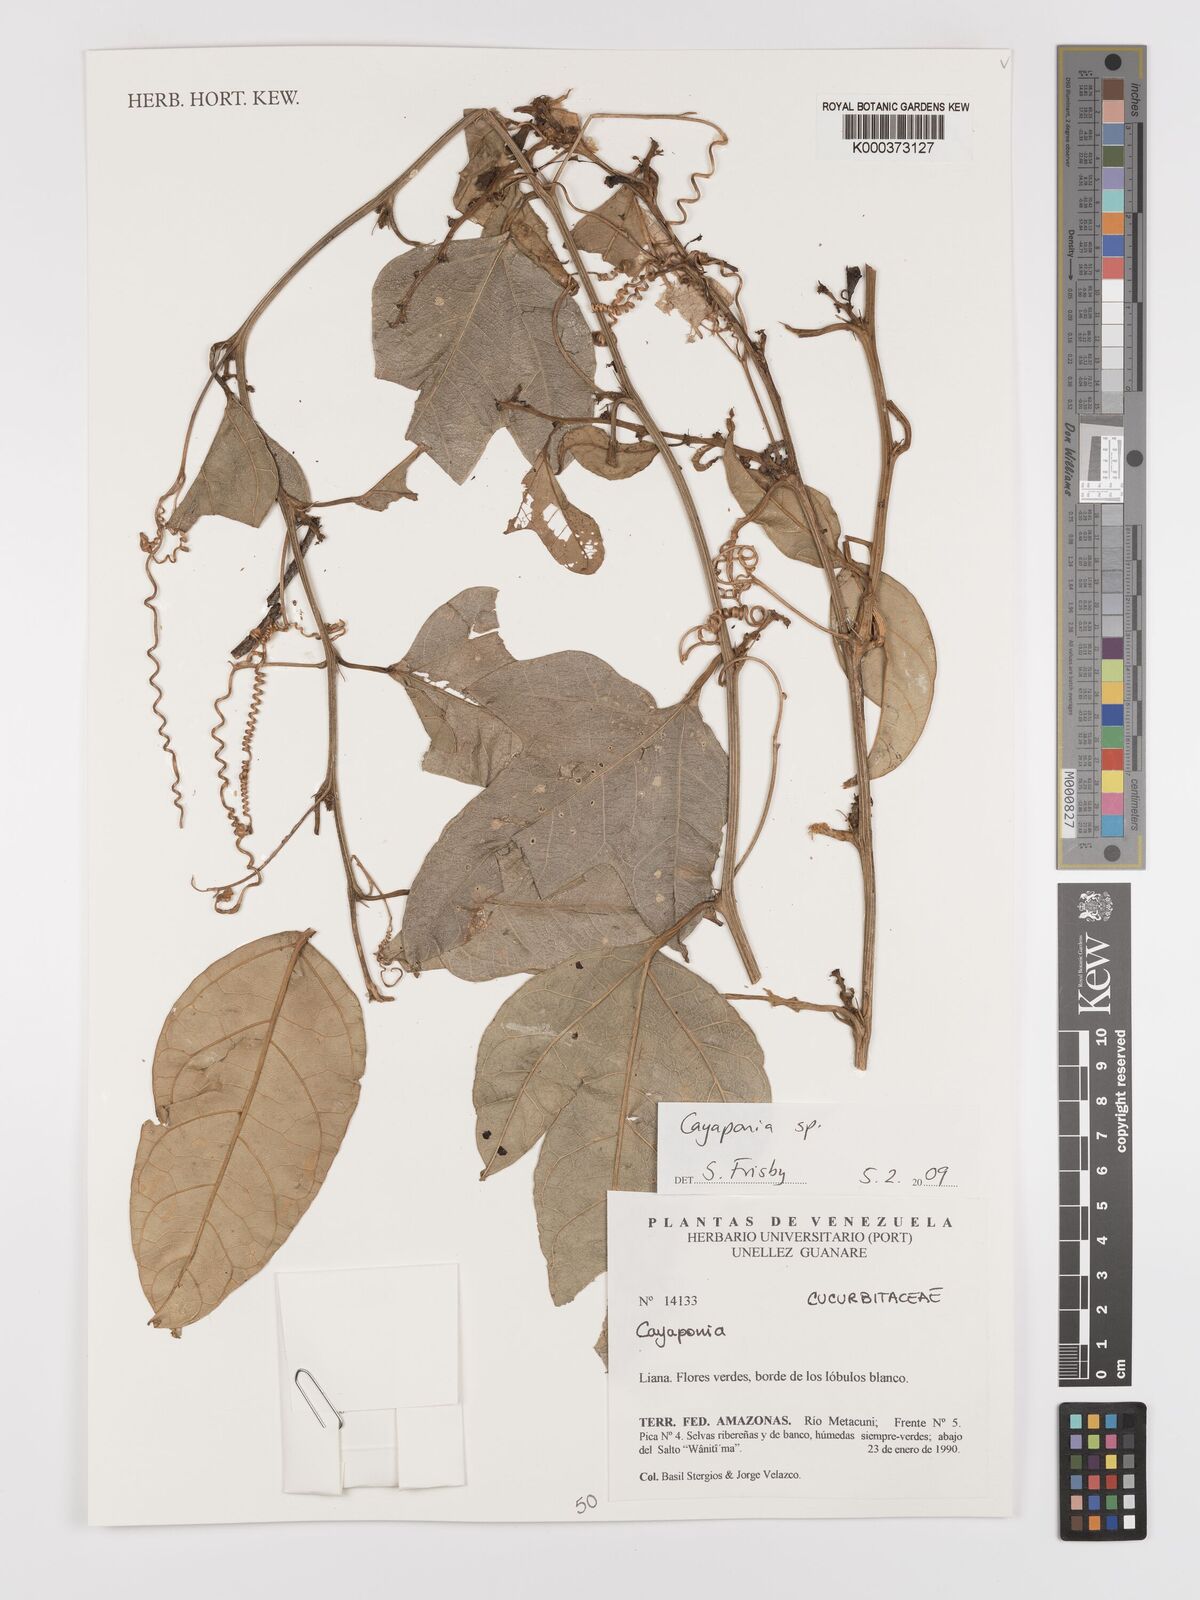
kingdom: Plantae
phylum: Tracheophyta
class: Magnoliopsida
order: Cucurbitales
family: Cucurbitaceae
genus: Cayaponia
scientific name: Cayaponia
